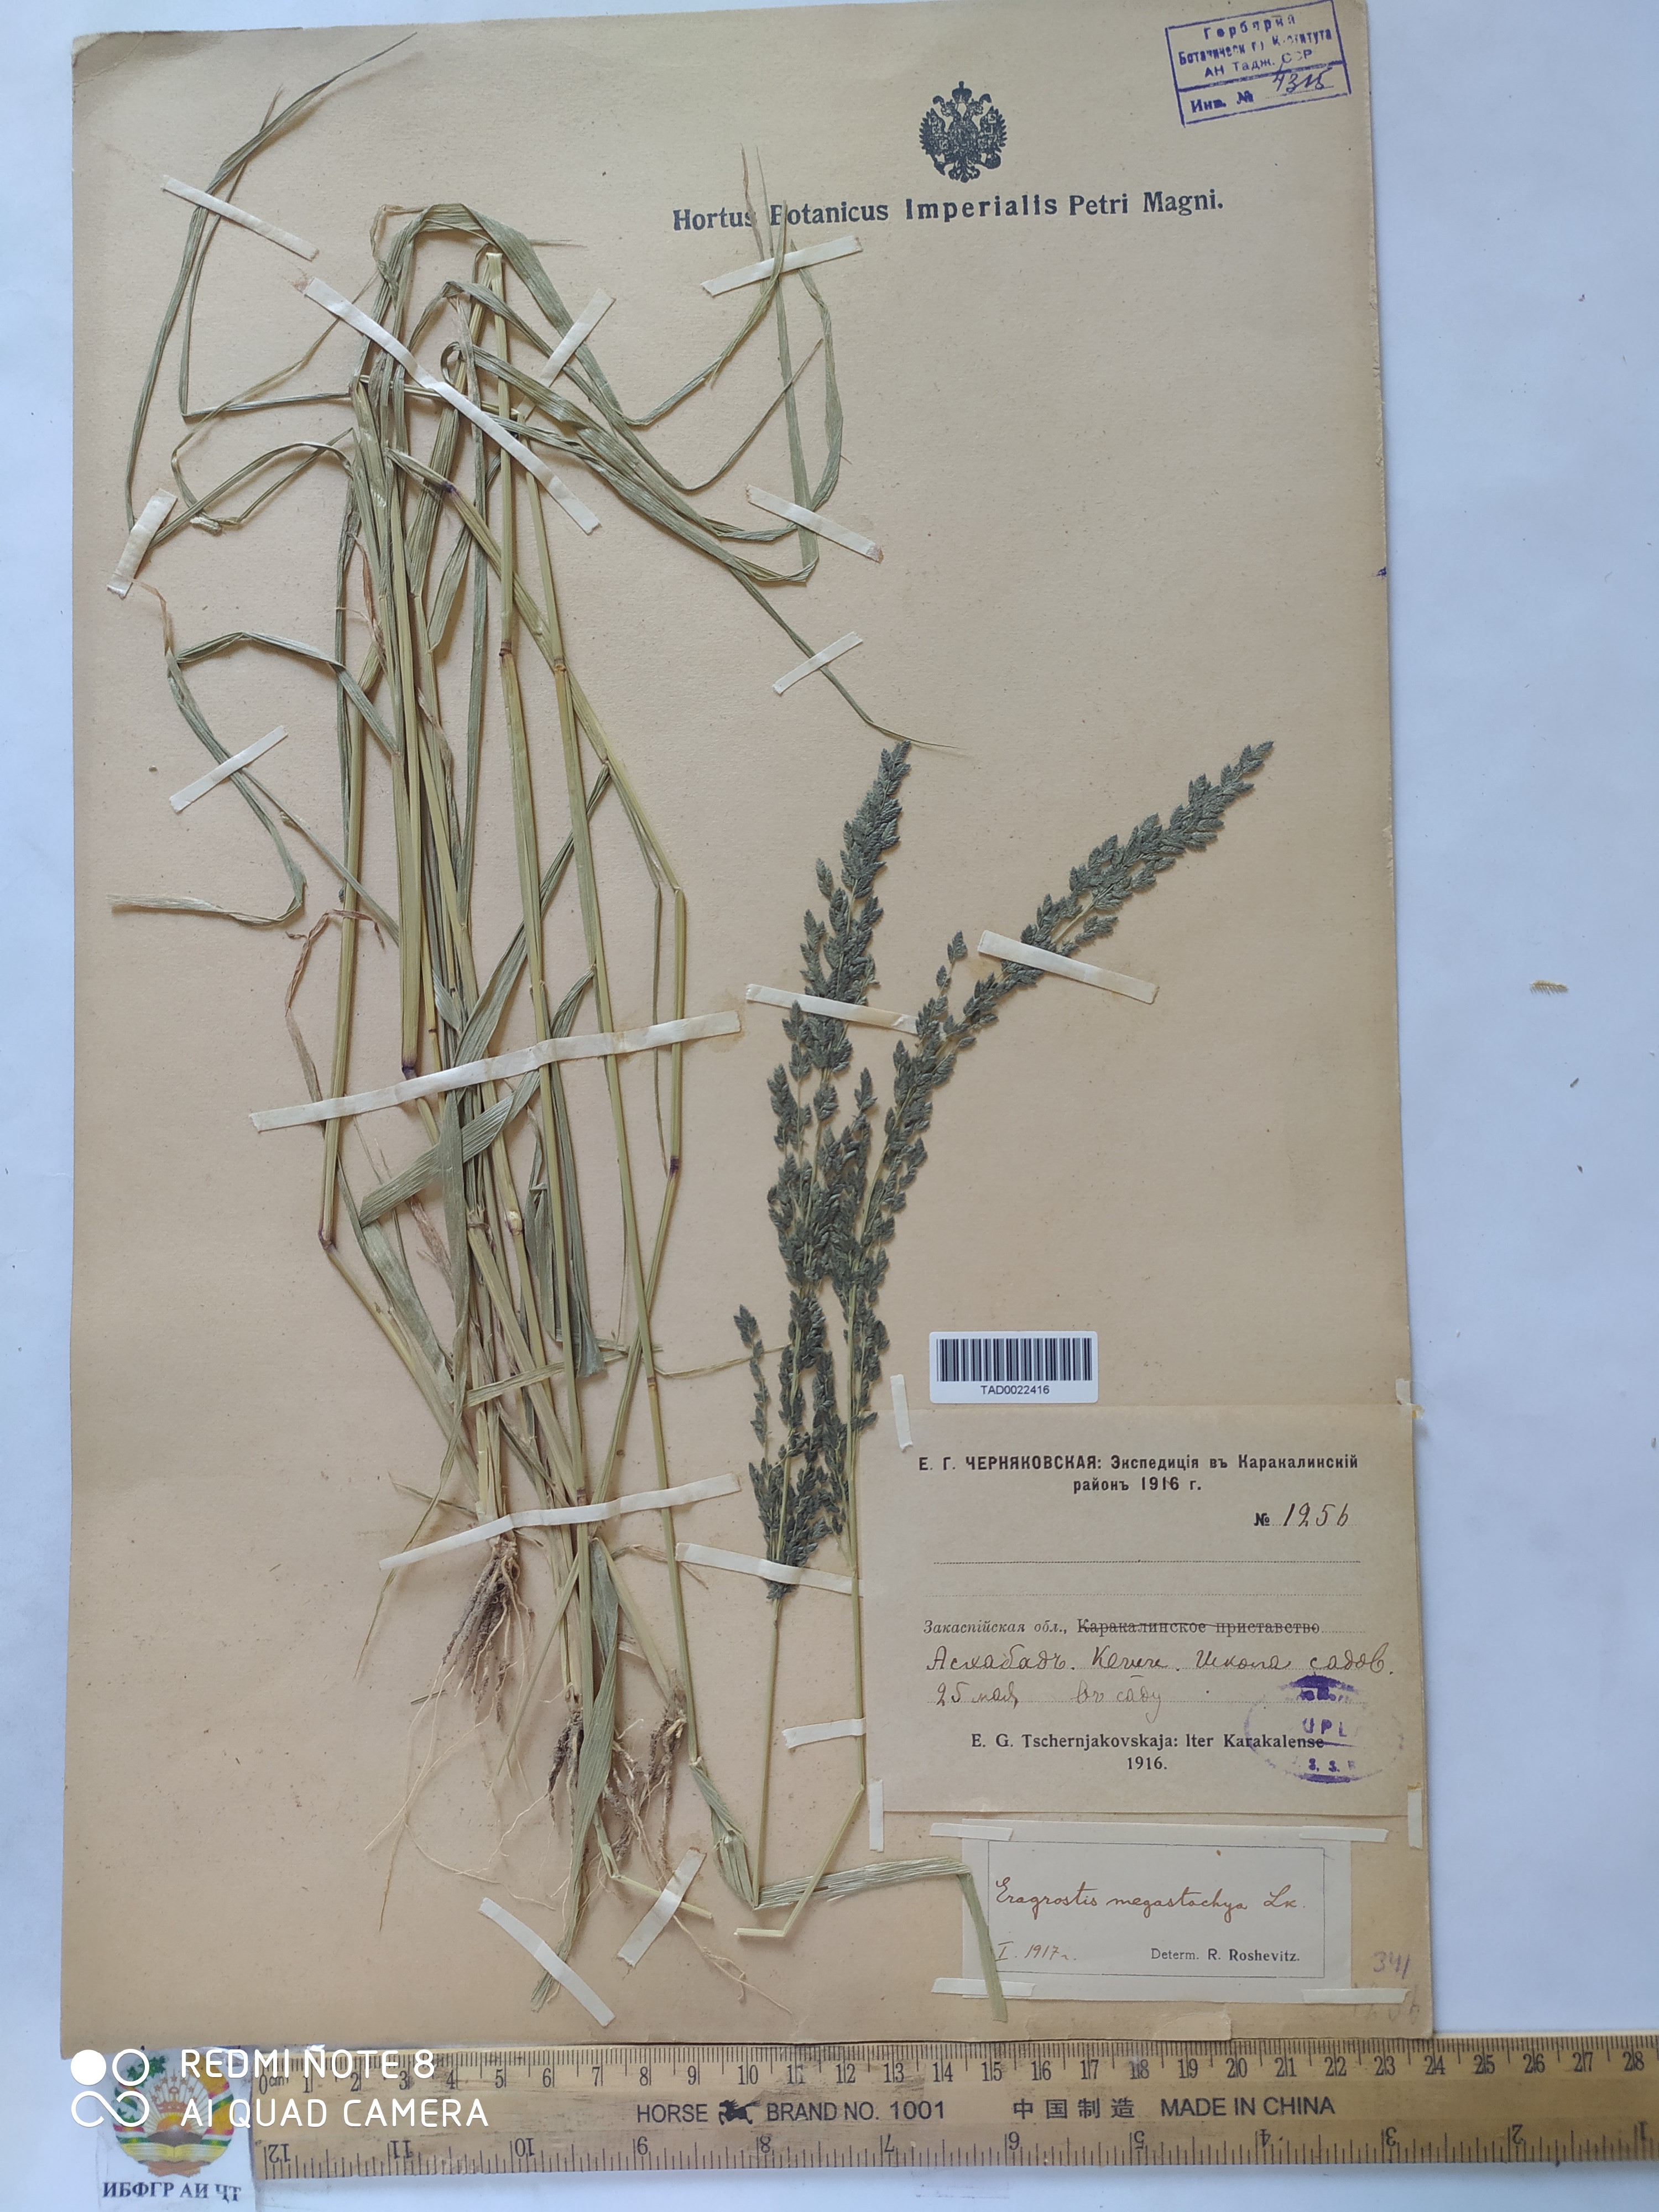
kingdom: Plantae
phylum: Tracheophyta
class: Liliopsida
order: Poales
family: Poaceae
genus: Eragrostis
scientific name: Eragrostis cilianensis
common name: Stinkgrass
